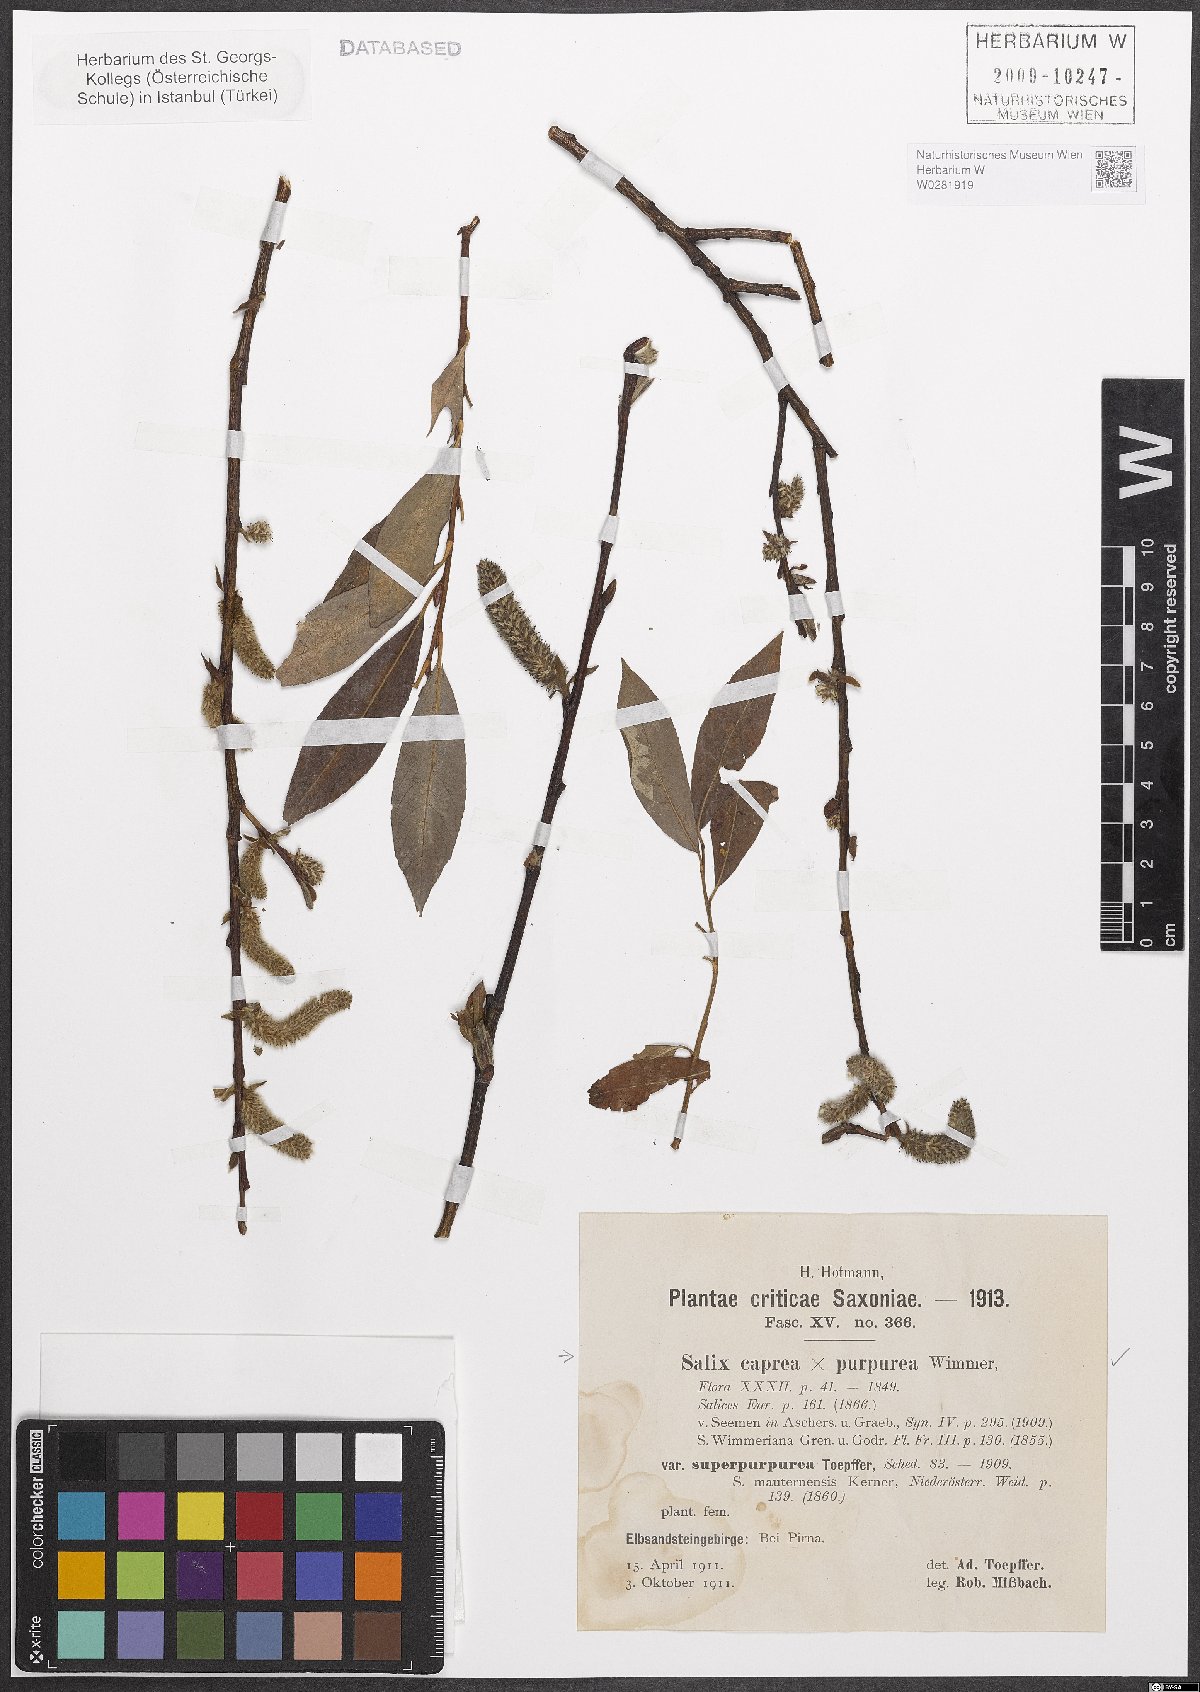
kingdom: Plantae
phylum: Tracheophyta
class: Magnoliopsida
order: Malpighiales
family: Salicaceae
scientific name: Salicaceae
